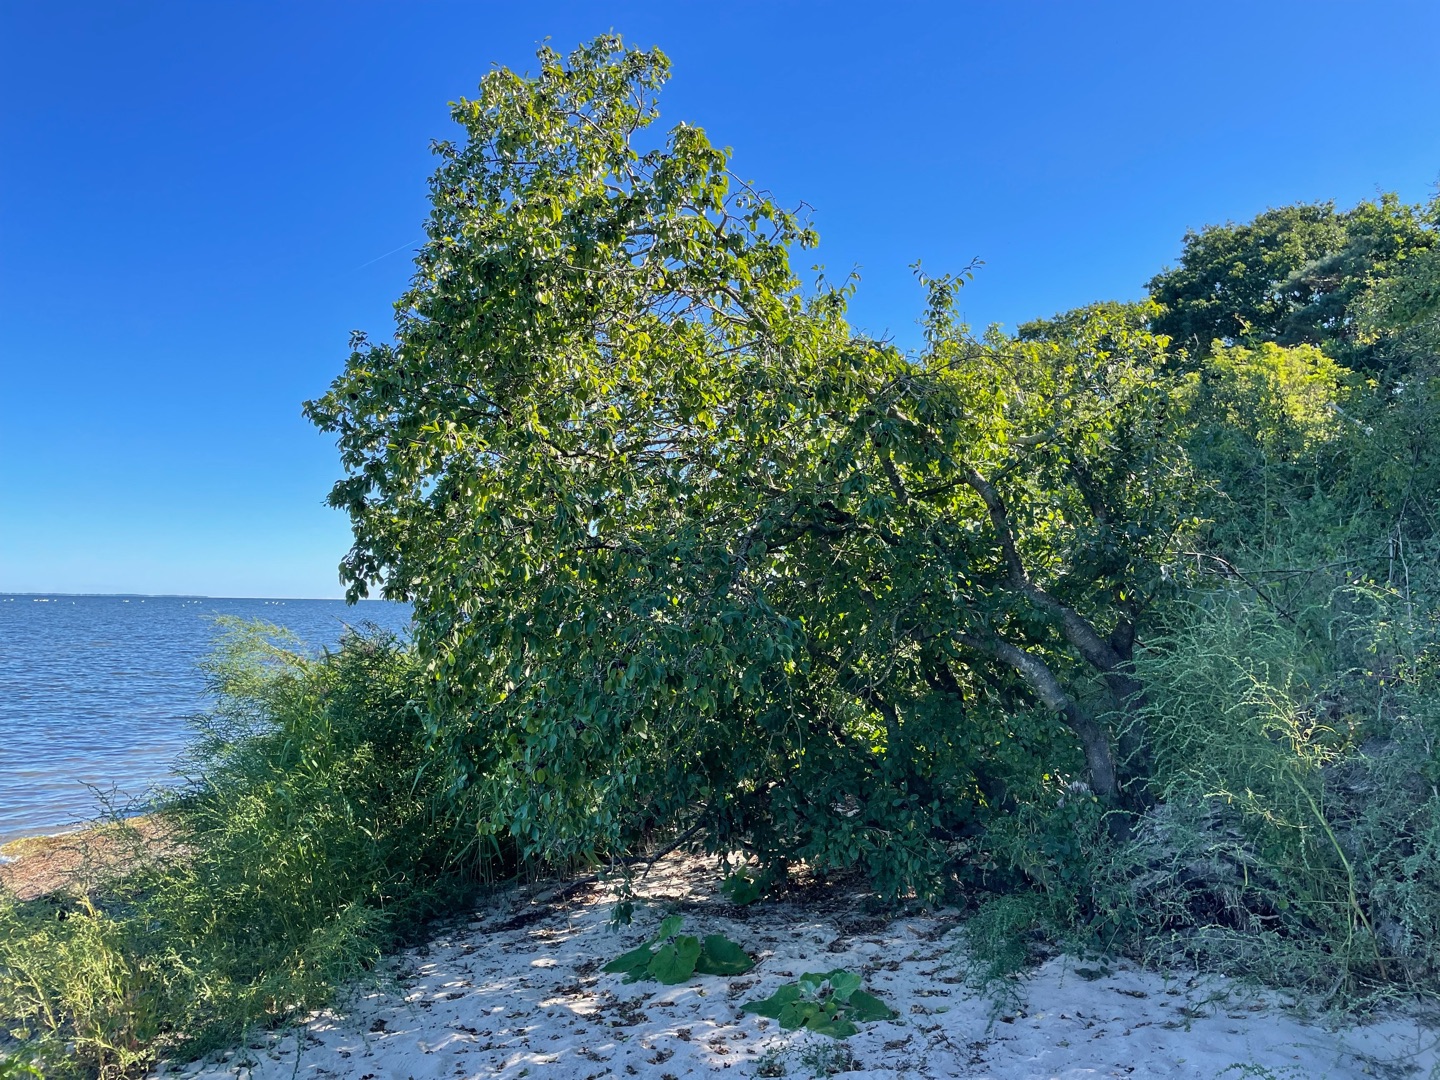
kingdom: Plantae
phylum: Tracheophyta
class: Magnoliopsida
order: Rosales
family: Rhamnaceae
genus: Rhamnus
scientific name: Rhamnus cathartica
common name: Vrietorn
